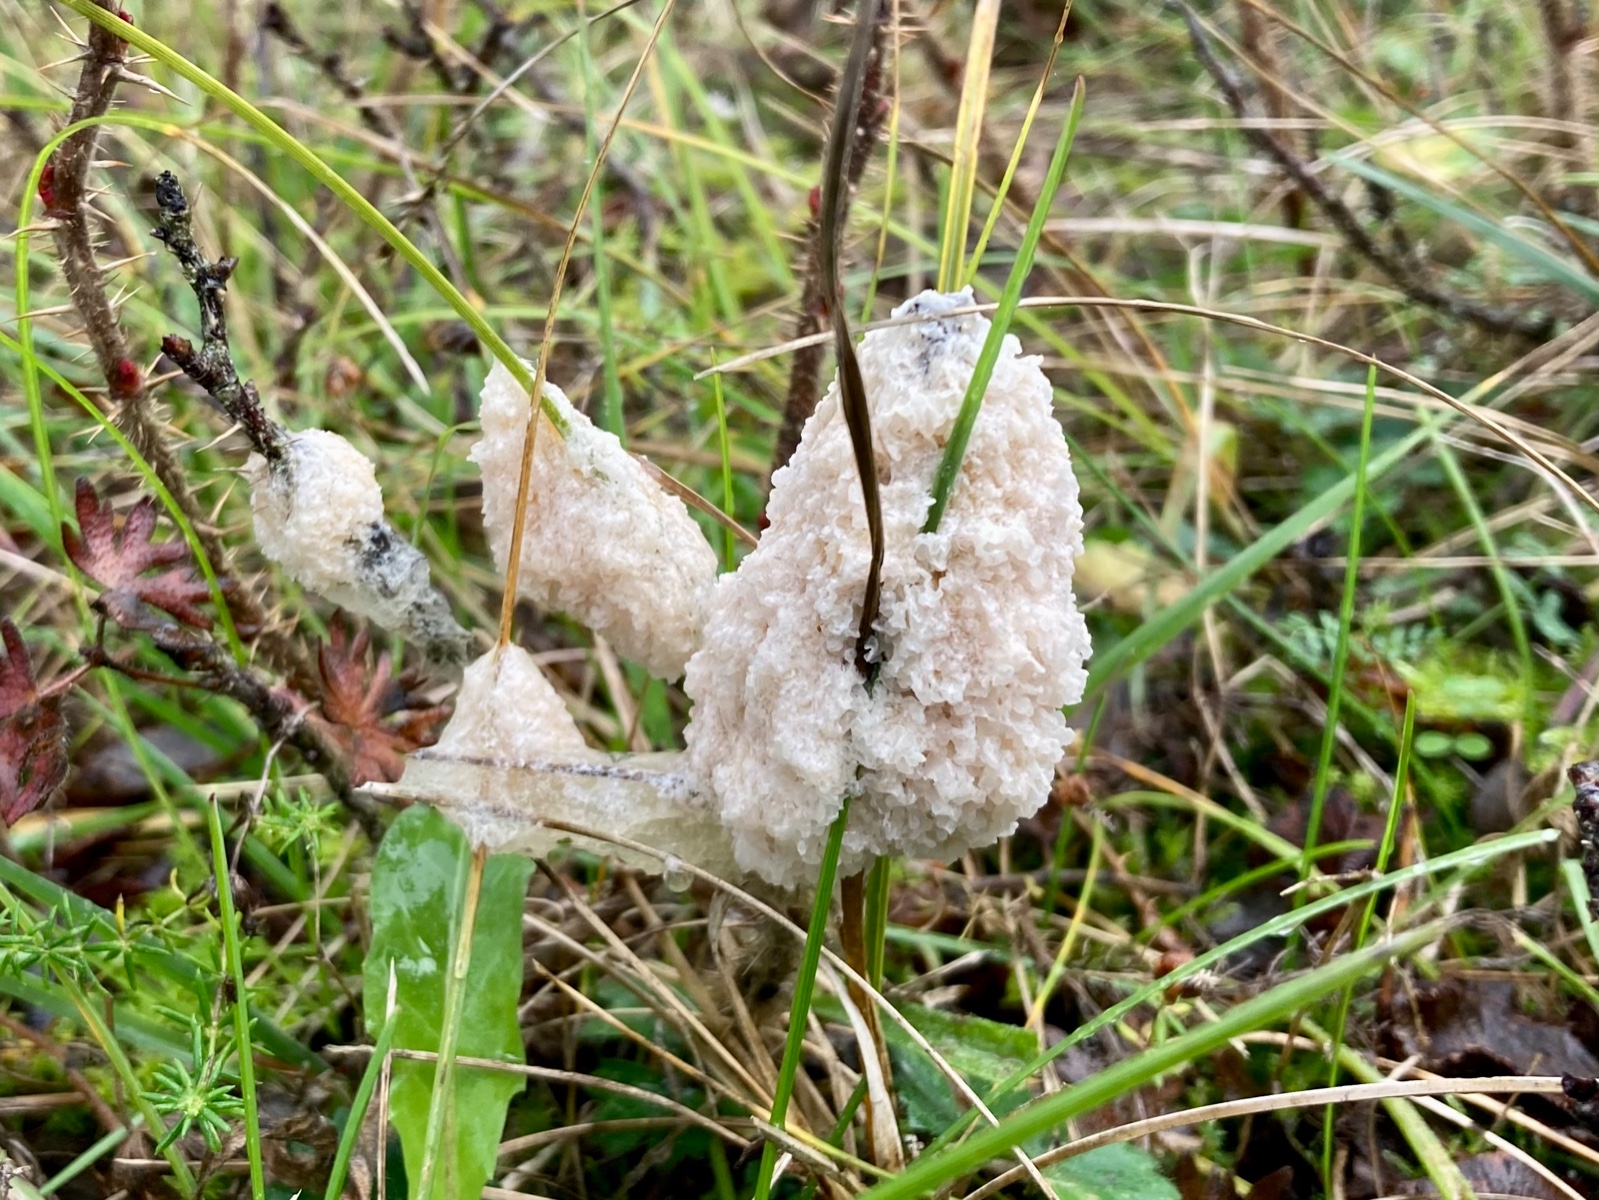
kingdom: Protozoa
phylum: Mycetozoa
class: Myxomycetes
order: Physarales
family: Physaraceae
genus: Didymium
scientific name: Didymium
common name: urteskum
